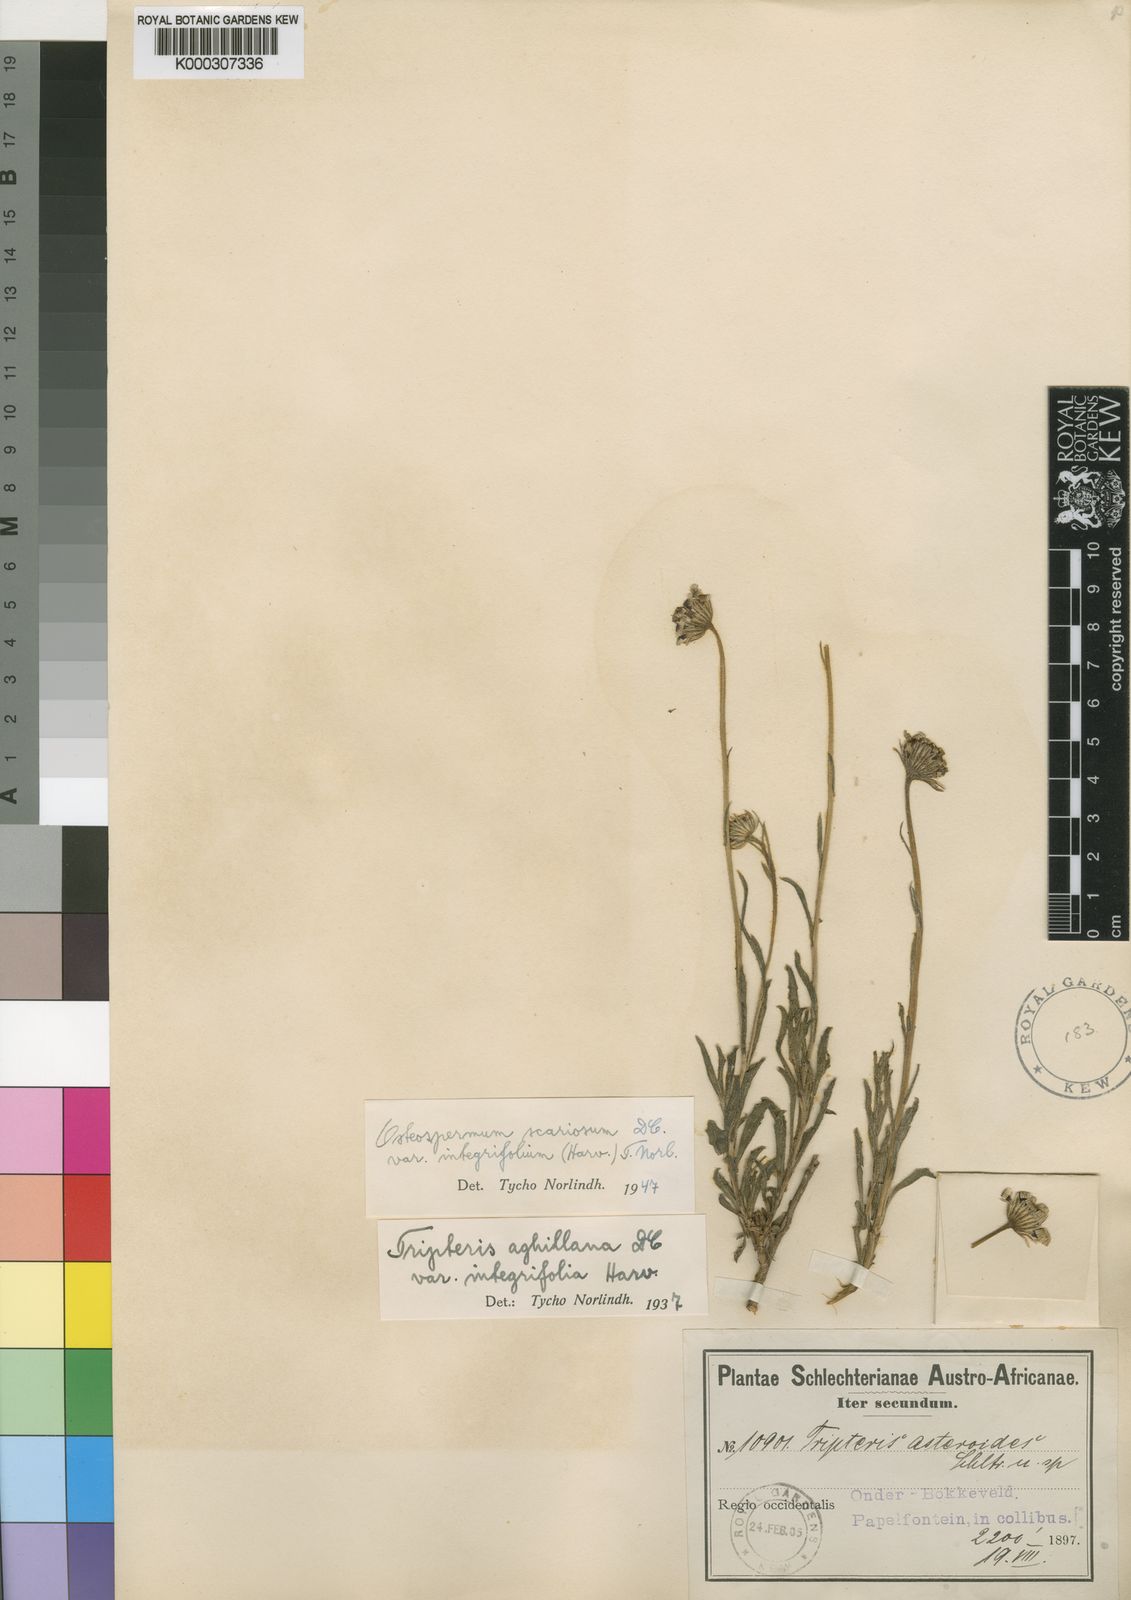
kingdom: Plantae
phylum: Tracheophyta
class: Magnoliopsida
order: Asterales
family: Asteraceae
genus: Osteospermum
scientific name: Osteospermum scariosum
